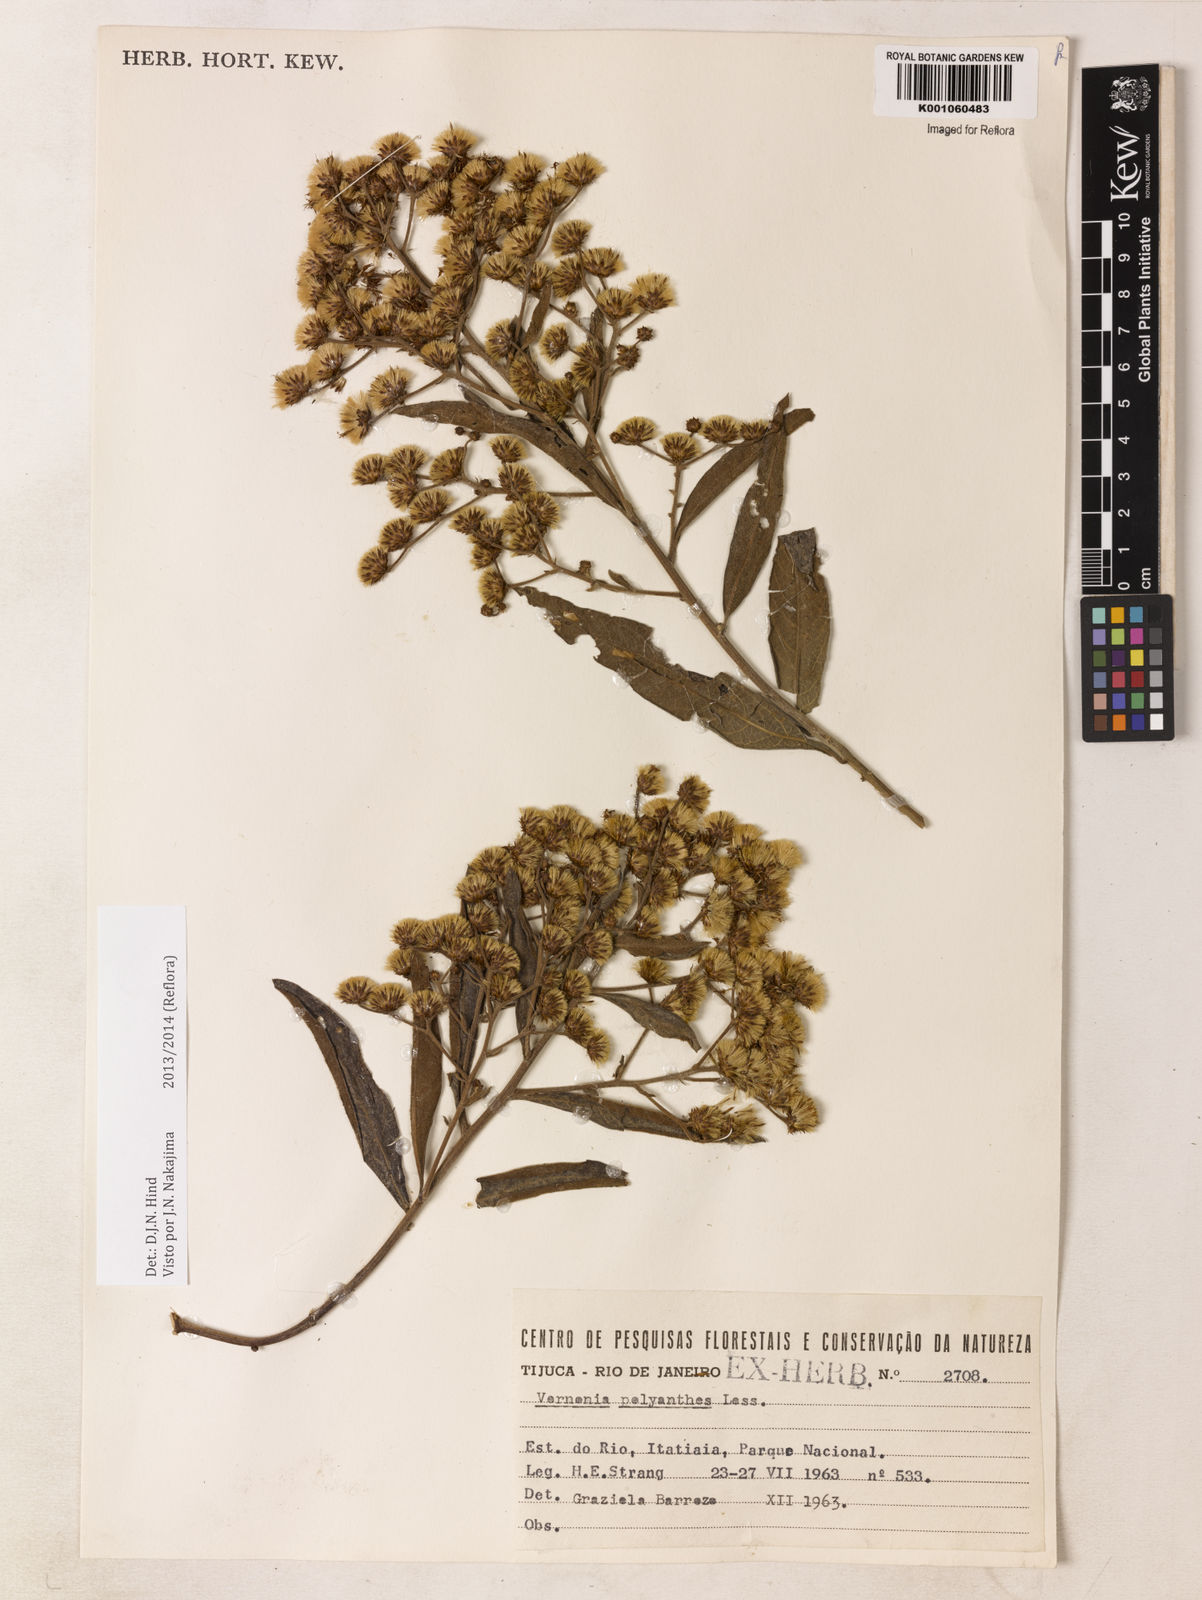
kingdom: Plantae
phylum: Tracheophyta
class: Magnoliopsida
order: Asterales
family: Asteraceae
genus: Vernonanthura
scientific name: Vernonanthura polyanthes
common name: Tree aster
